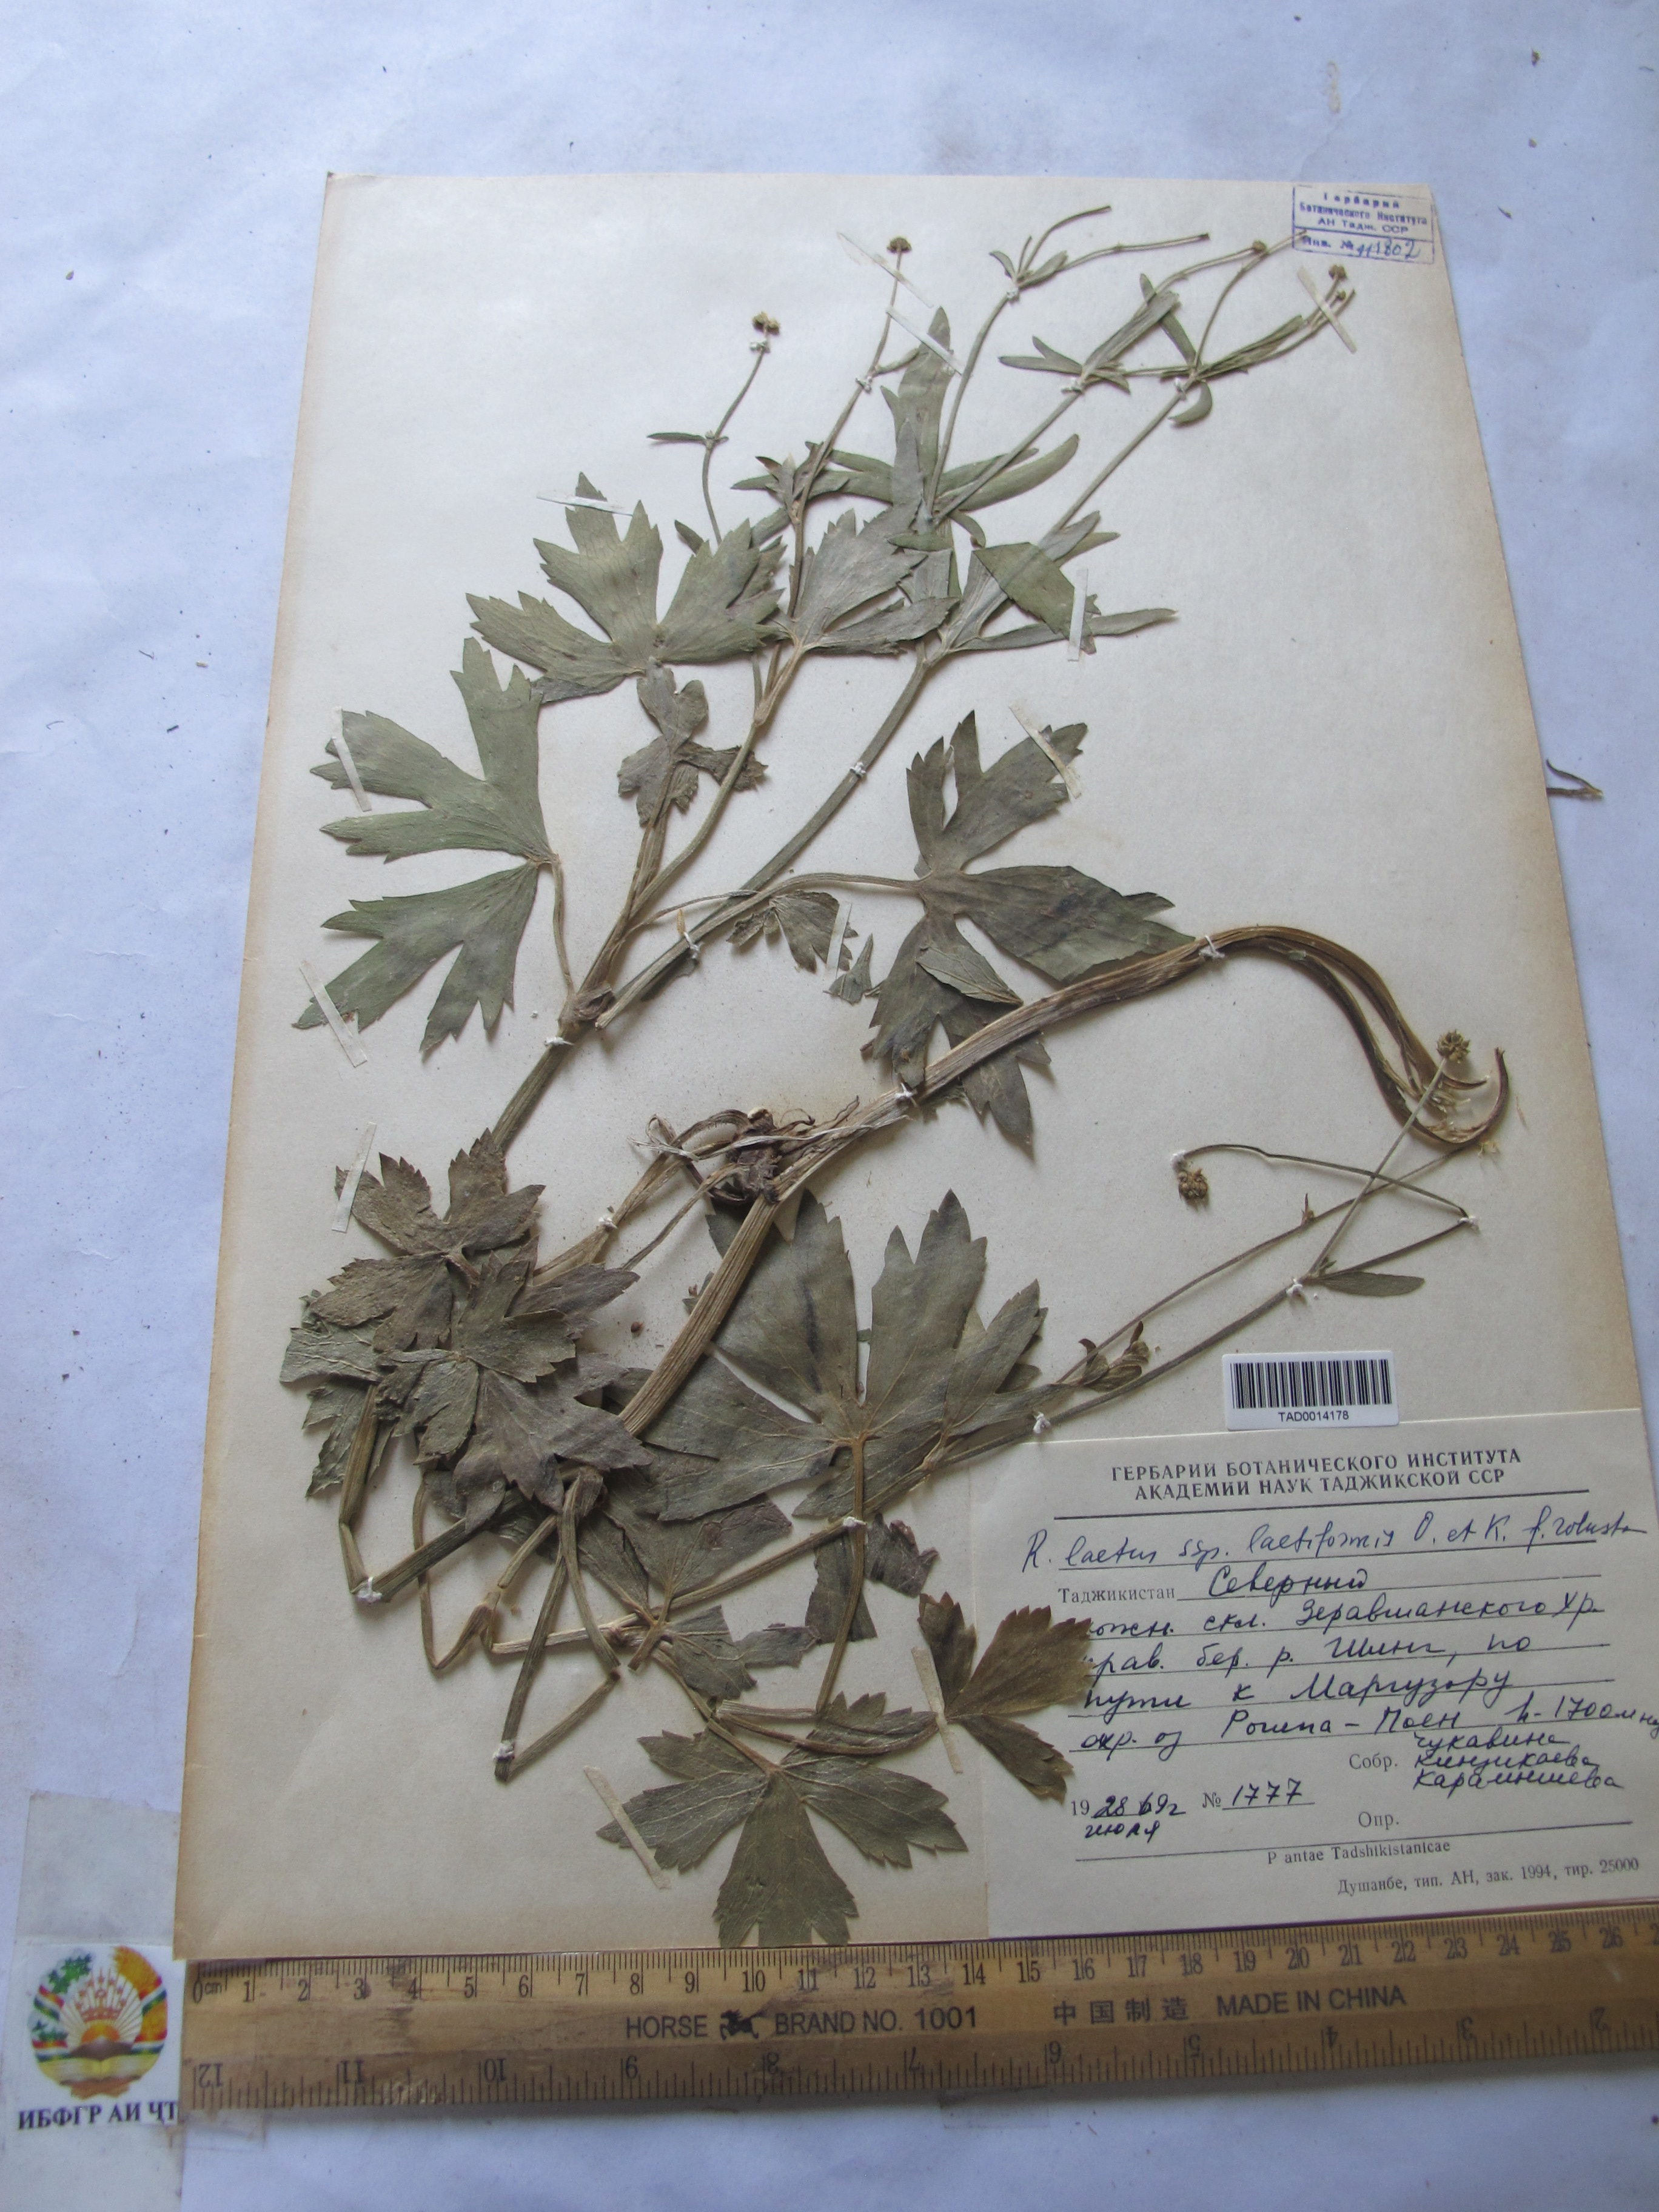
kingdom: Plantae
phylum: Tracheophyta
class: Magnoliopsida
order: Ranunculales
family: Ranunculaceae
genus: Ranunculus
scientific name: Ranunculus distans
